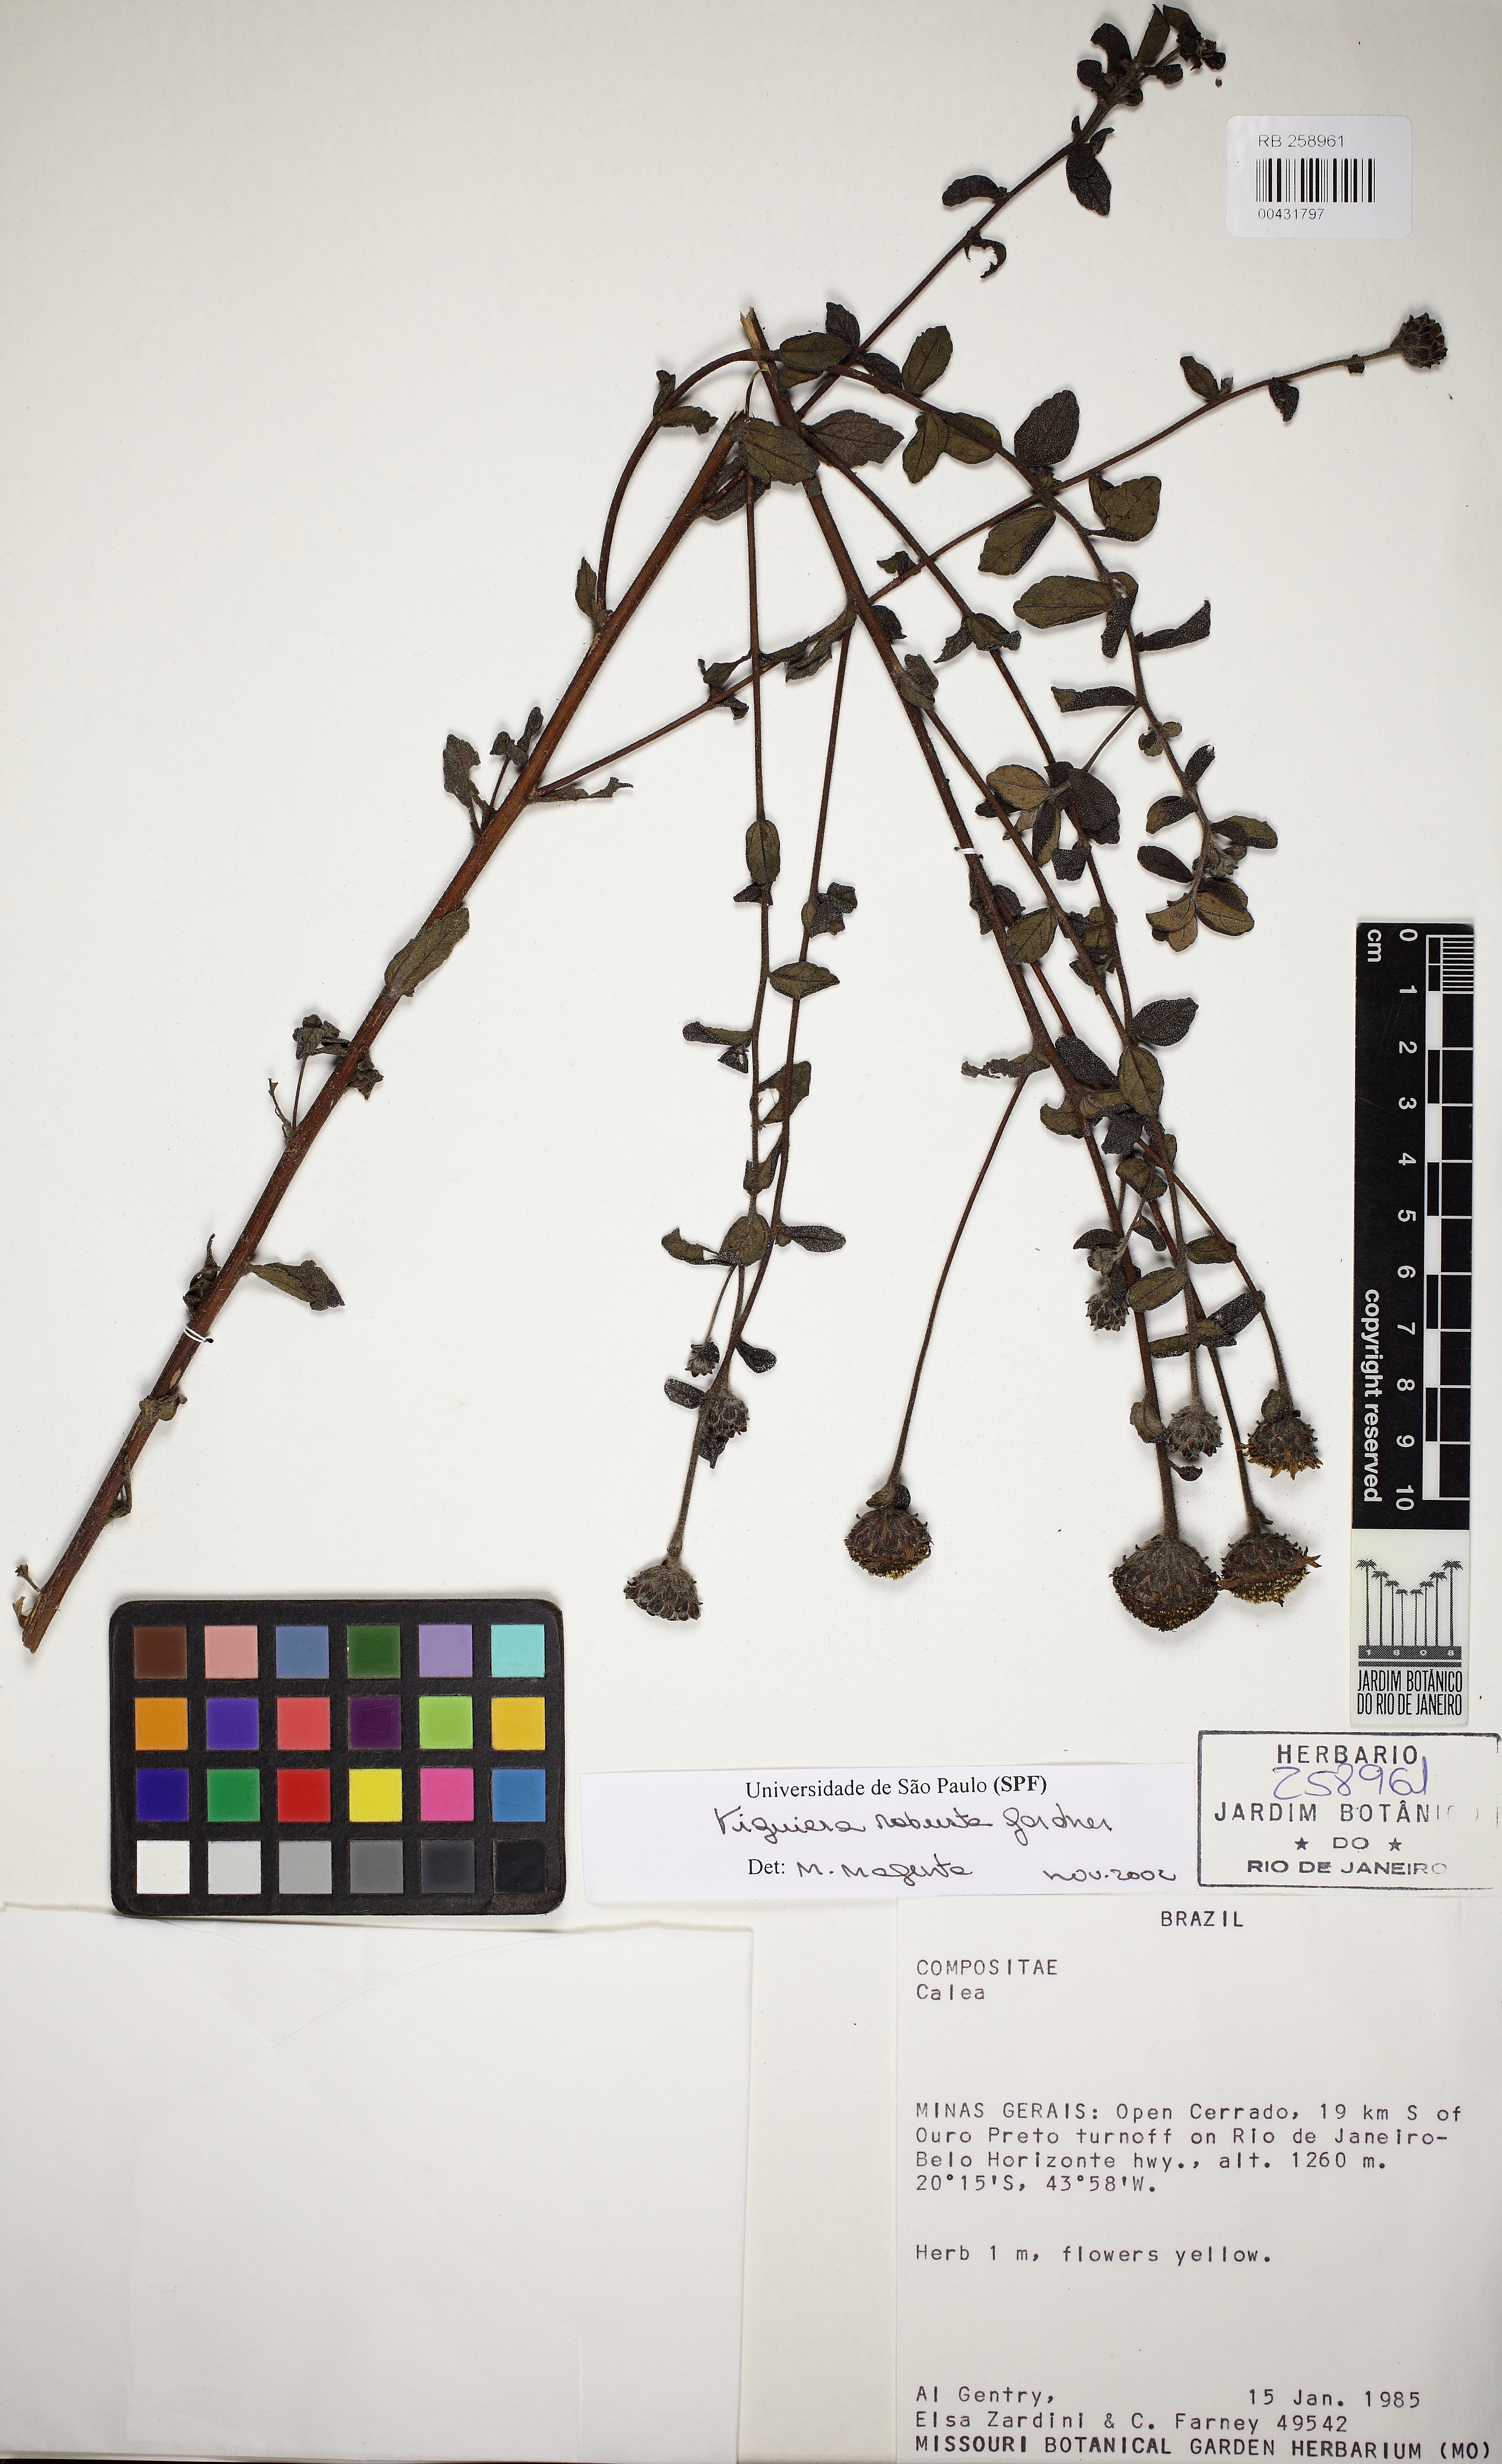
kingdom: Plantae
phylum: Tracheophyta
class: Magnoliopsida
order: Asterales
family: Asteraceae
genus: Aldama
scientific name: Aldama robusta
